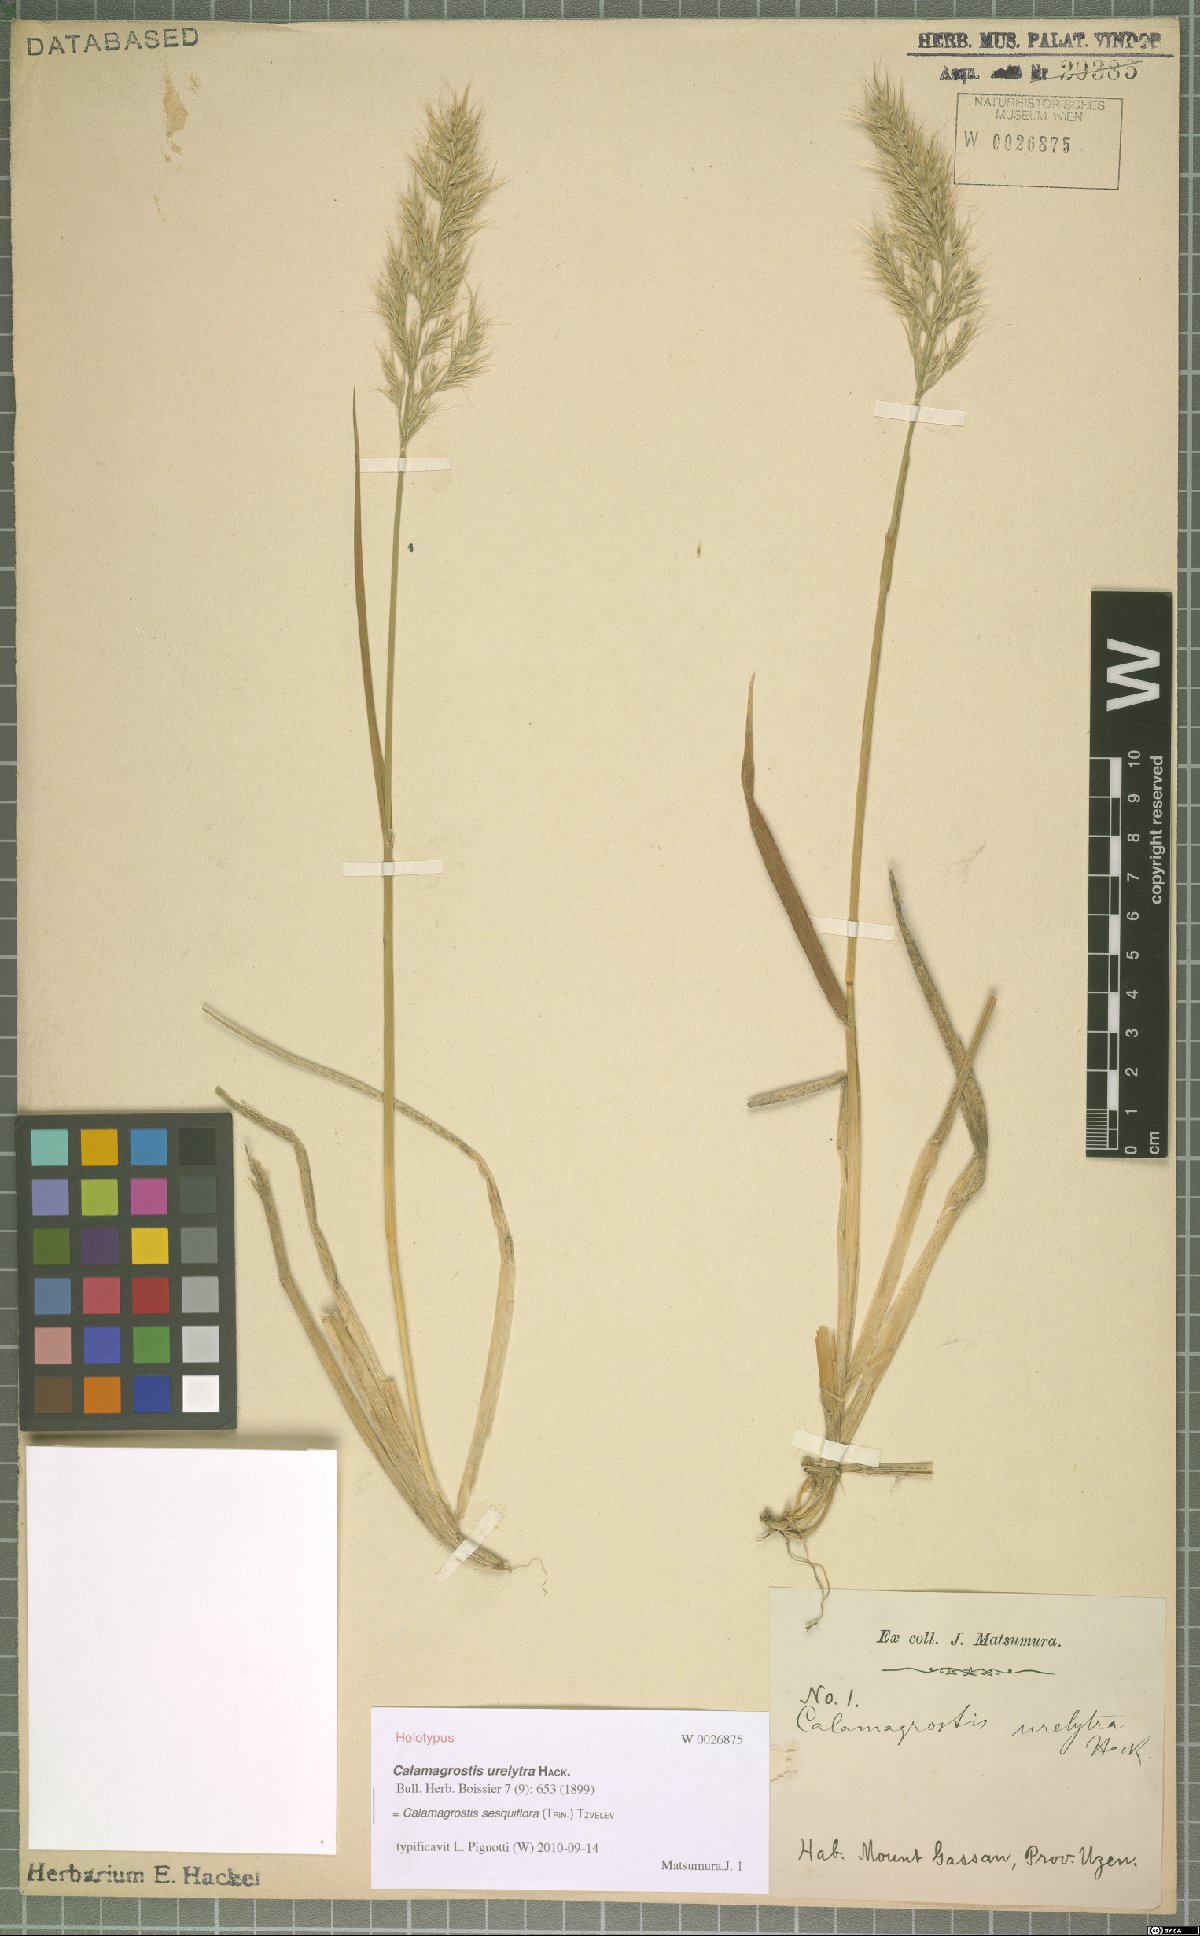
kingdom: Plantae
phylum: Tracheophyta
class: Liliopsida
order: Poales
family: Poaceae
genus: Calamagrostis
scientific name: Calamagrostis sesquiflora
